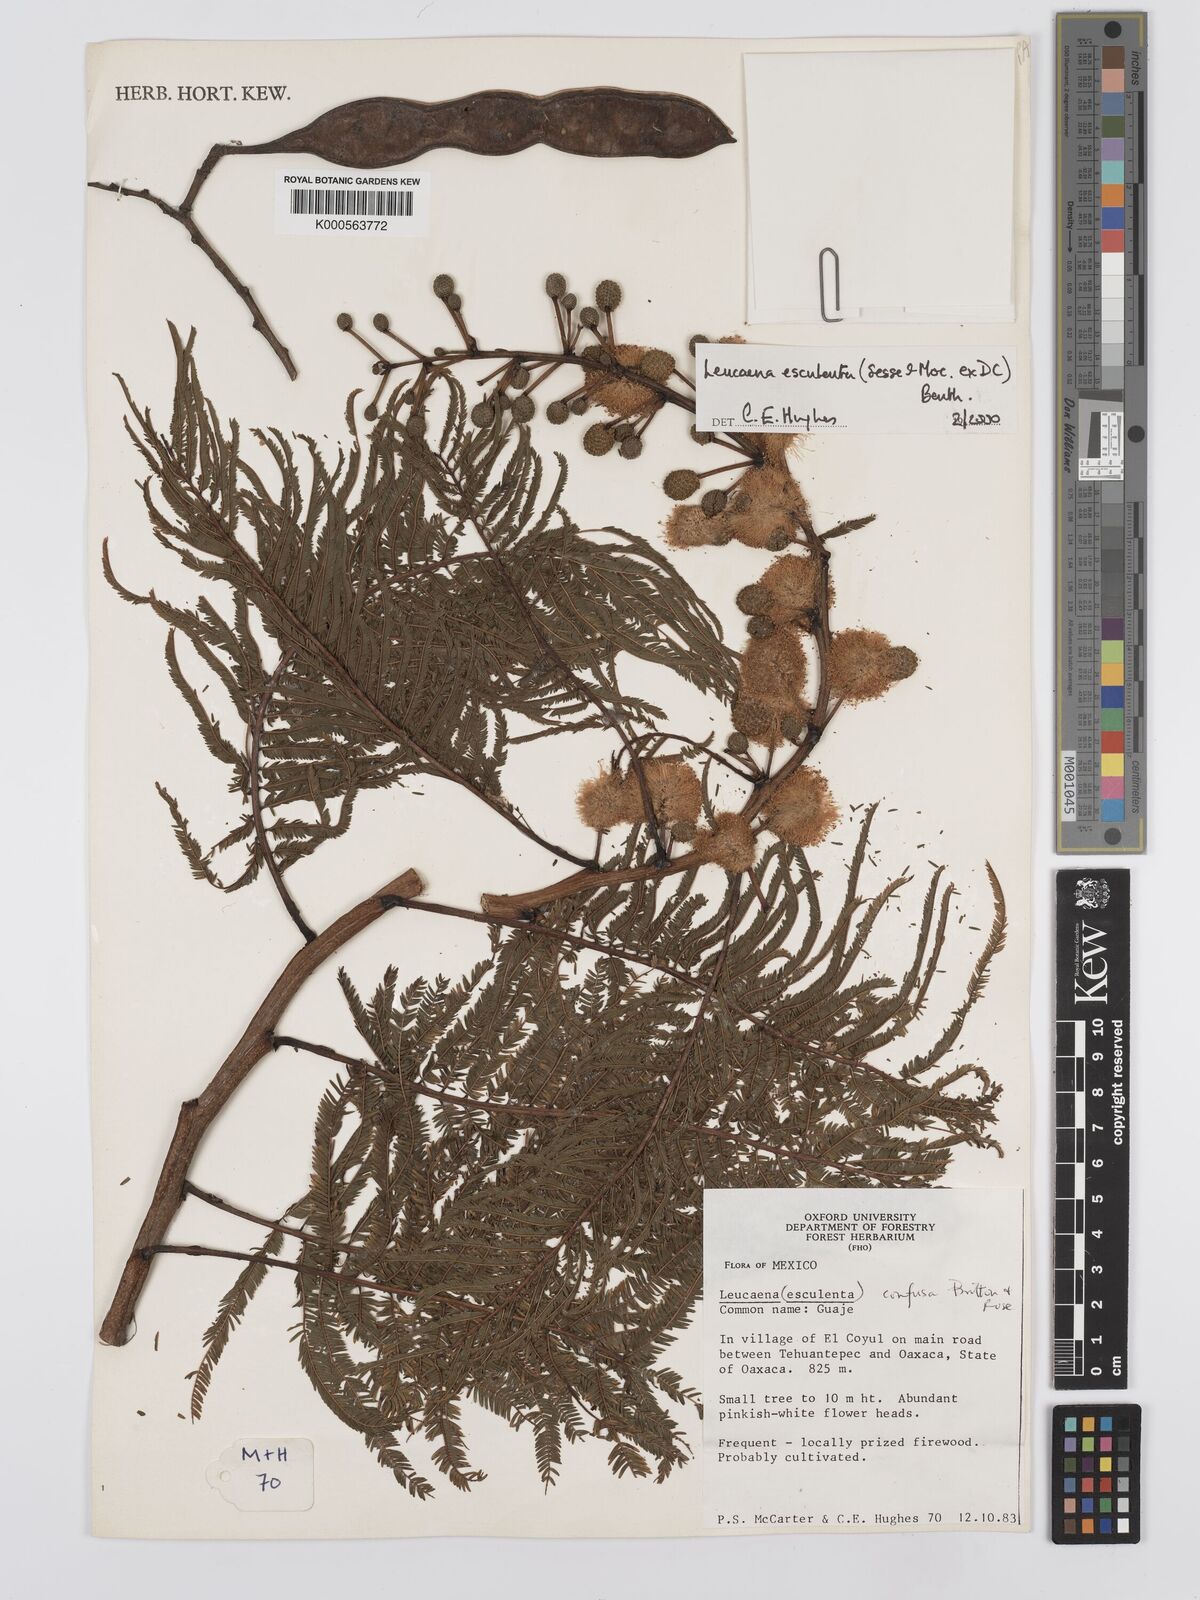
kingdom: Plantae
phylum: Tracheophyta
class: Magnoliopsida
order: Fabales
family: Fabaceae
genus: Leucaena
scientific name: Leucaena esculenta
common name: Guaje
